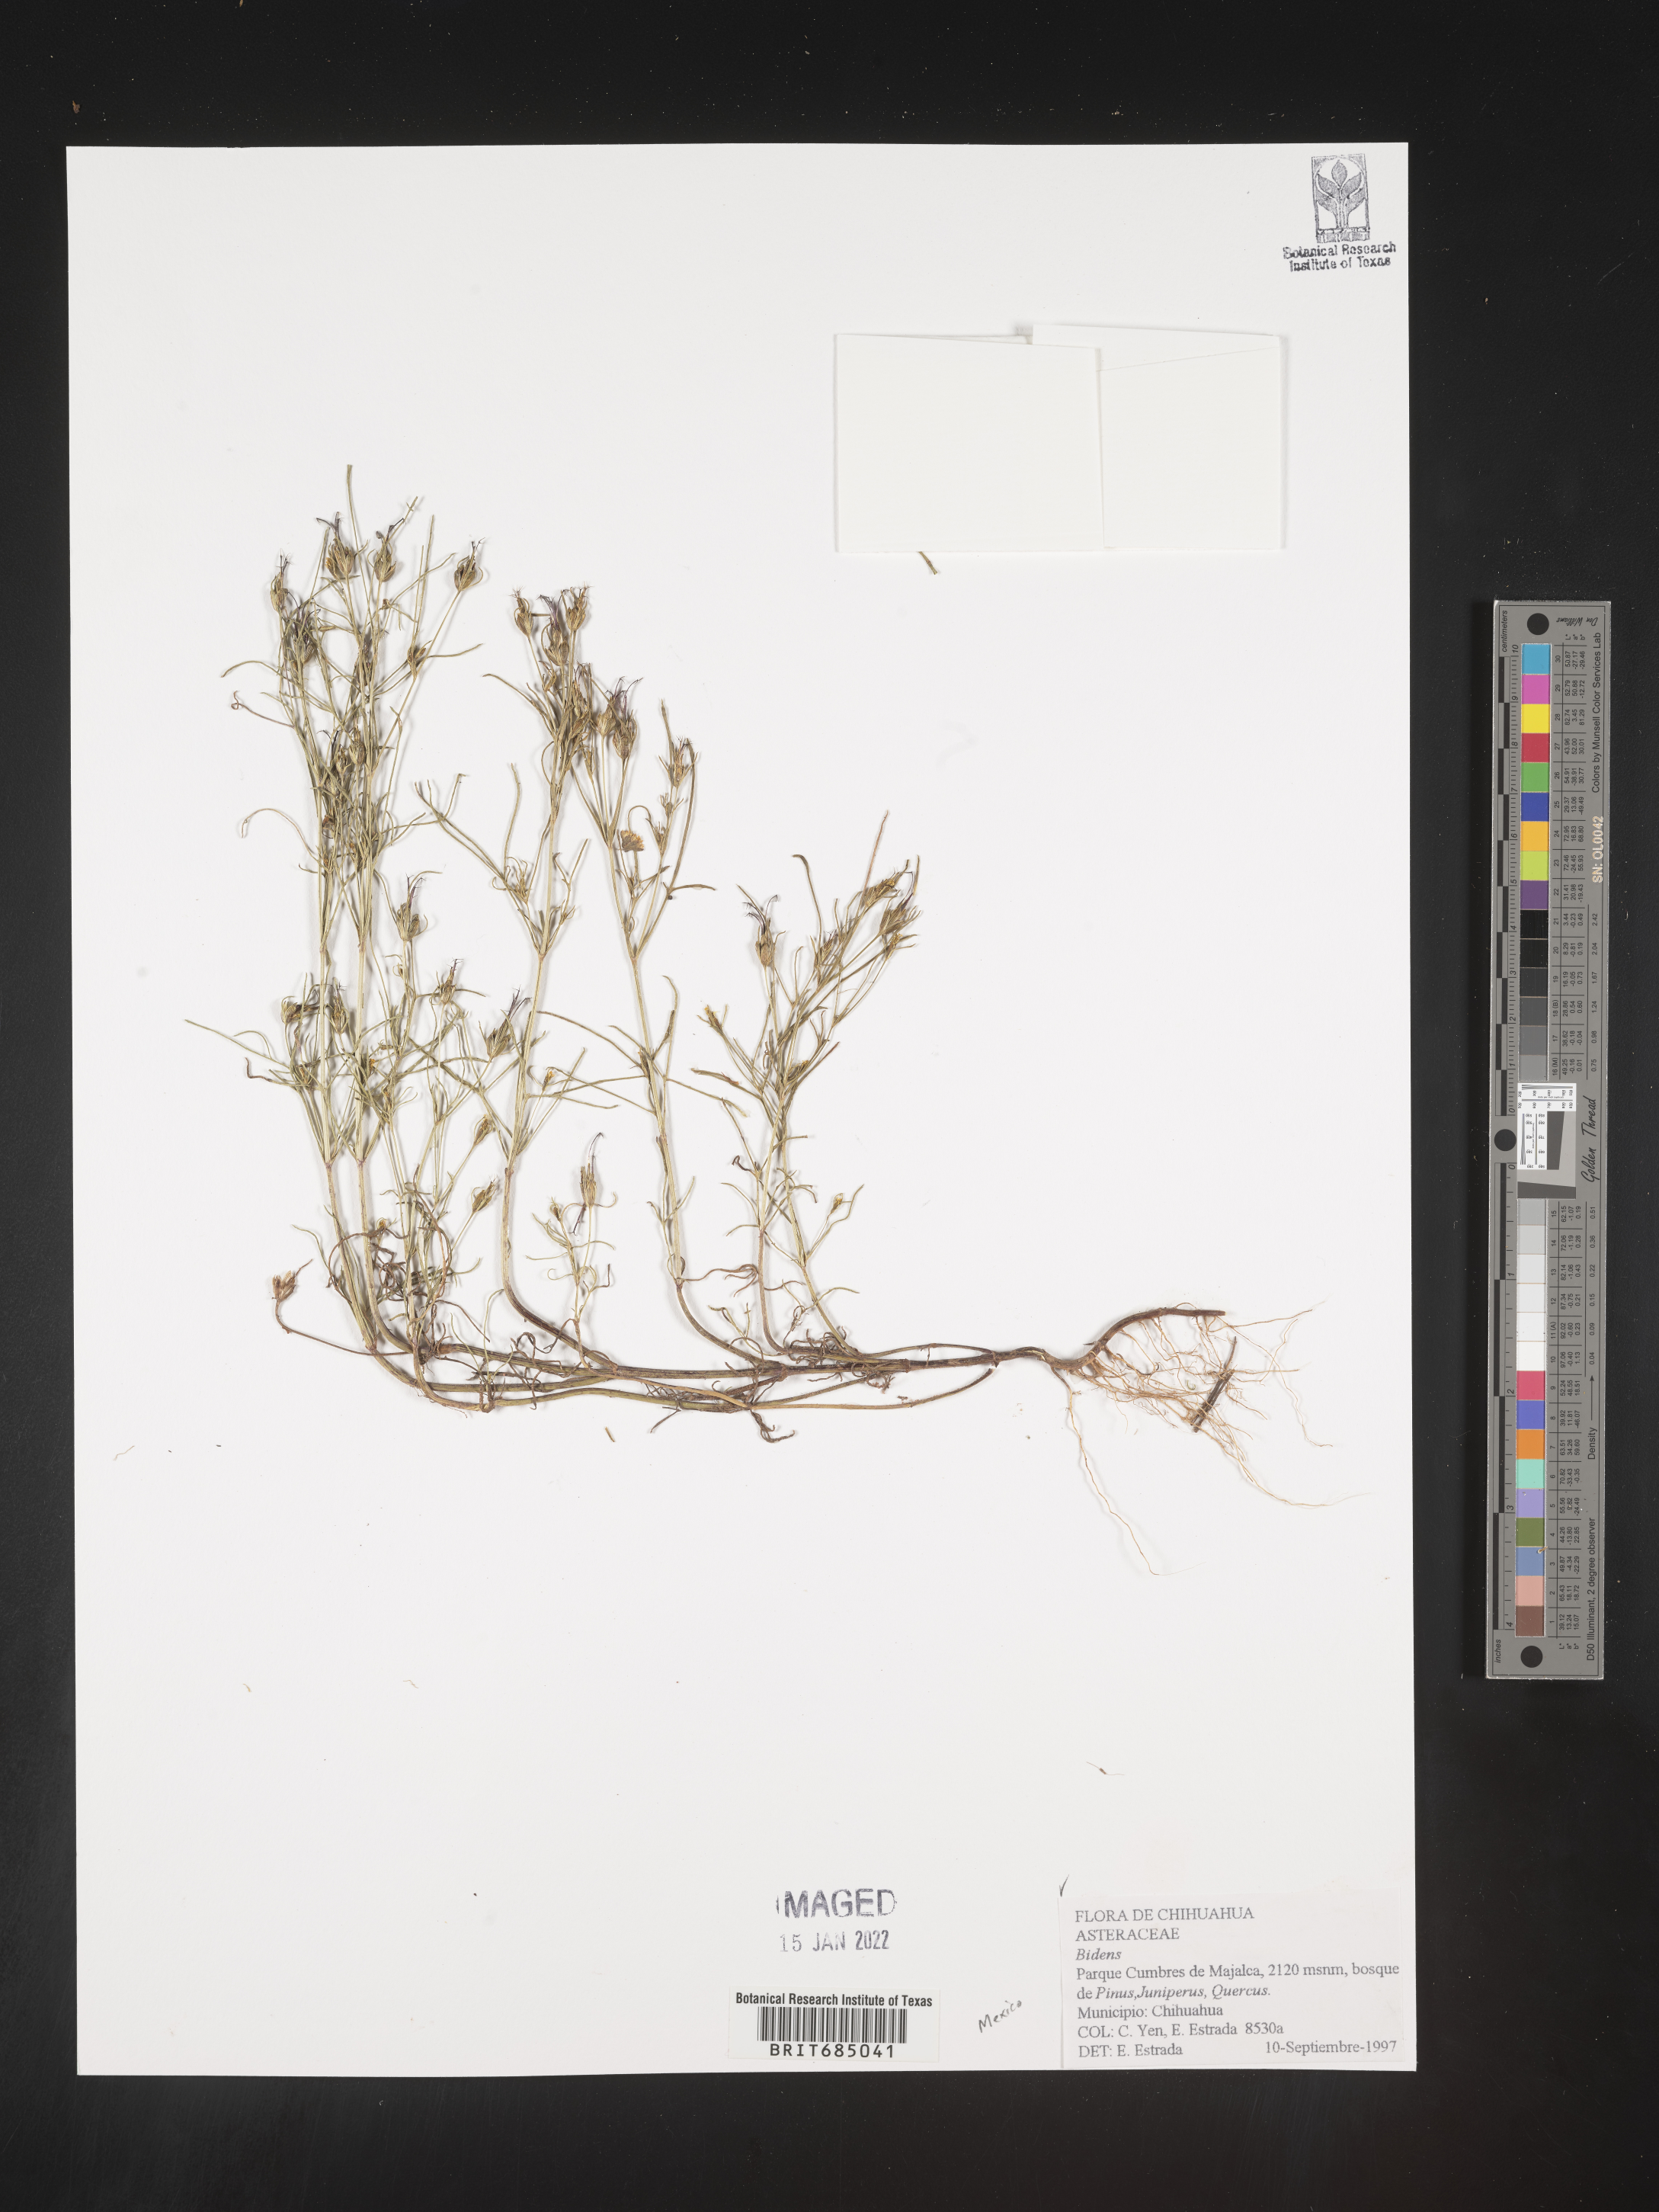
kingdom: Plantae
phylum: Tracheophyta
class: Magnoliopsida
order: Asterales
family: Asteraceae
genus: Bidens
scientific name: Bidens
